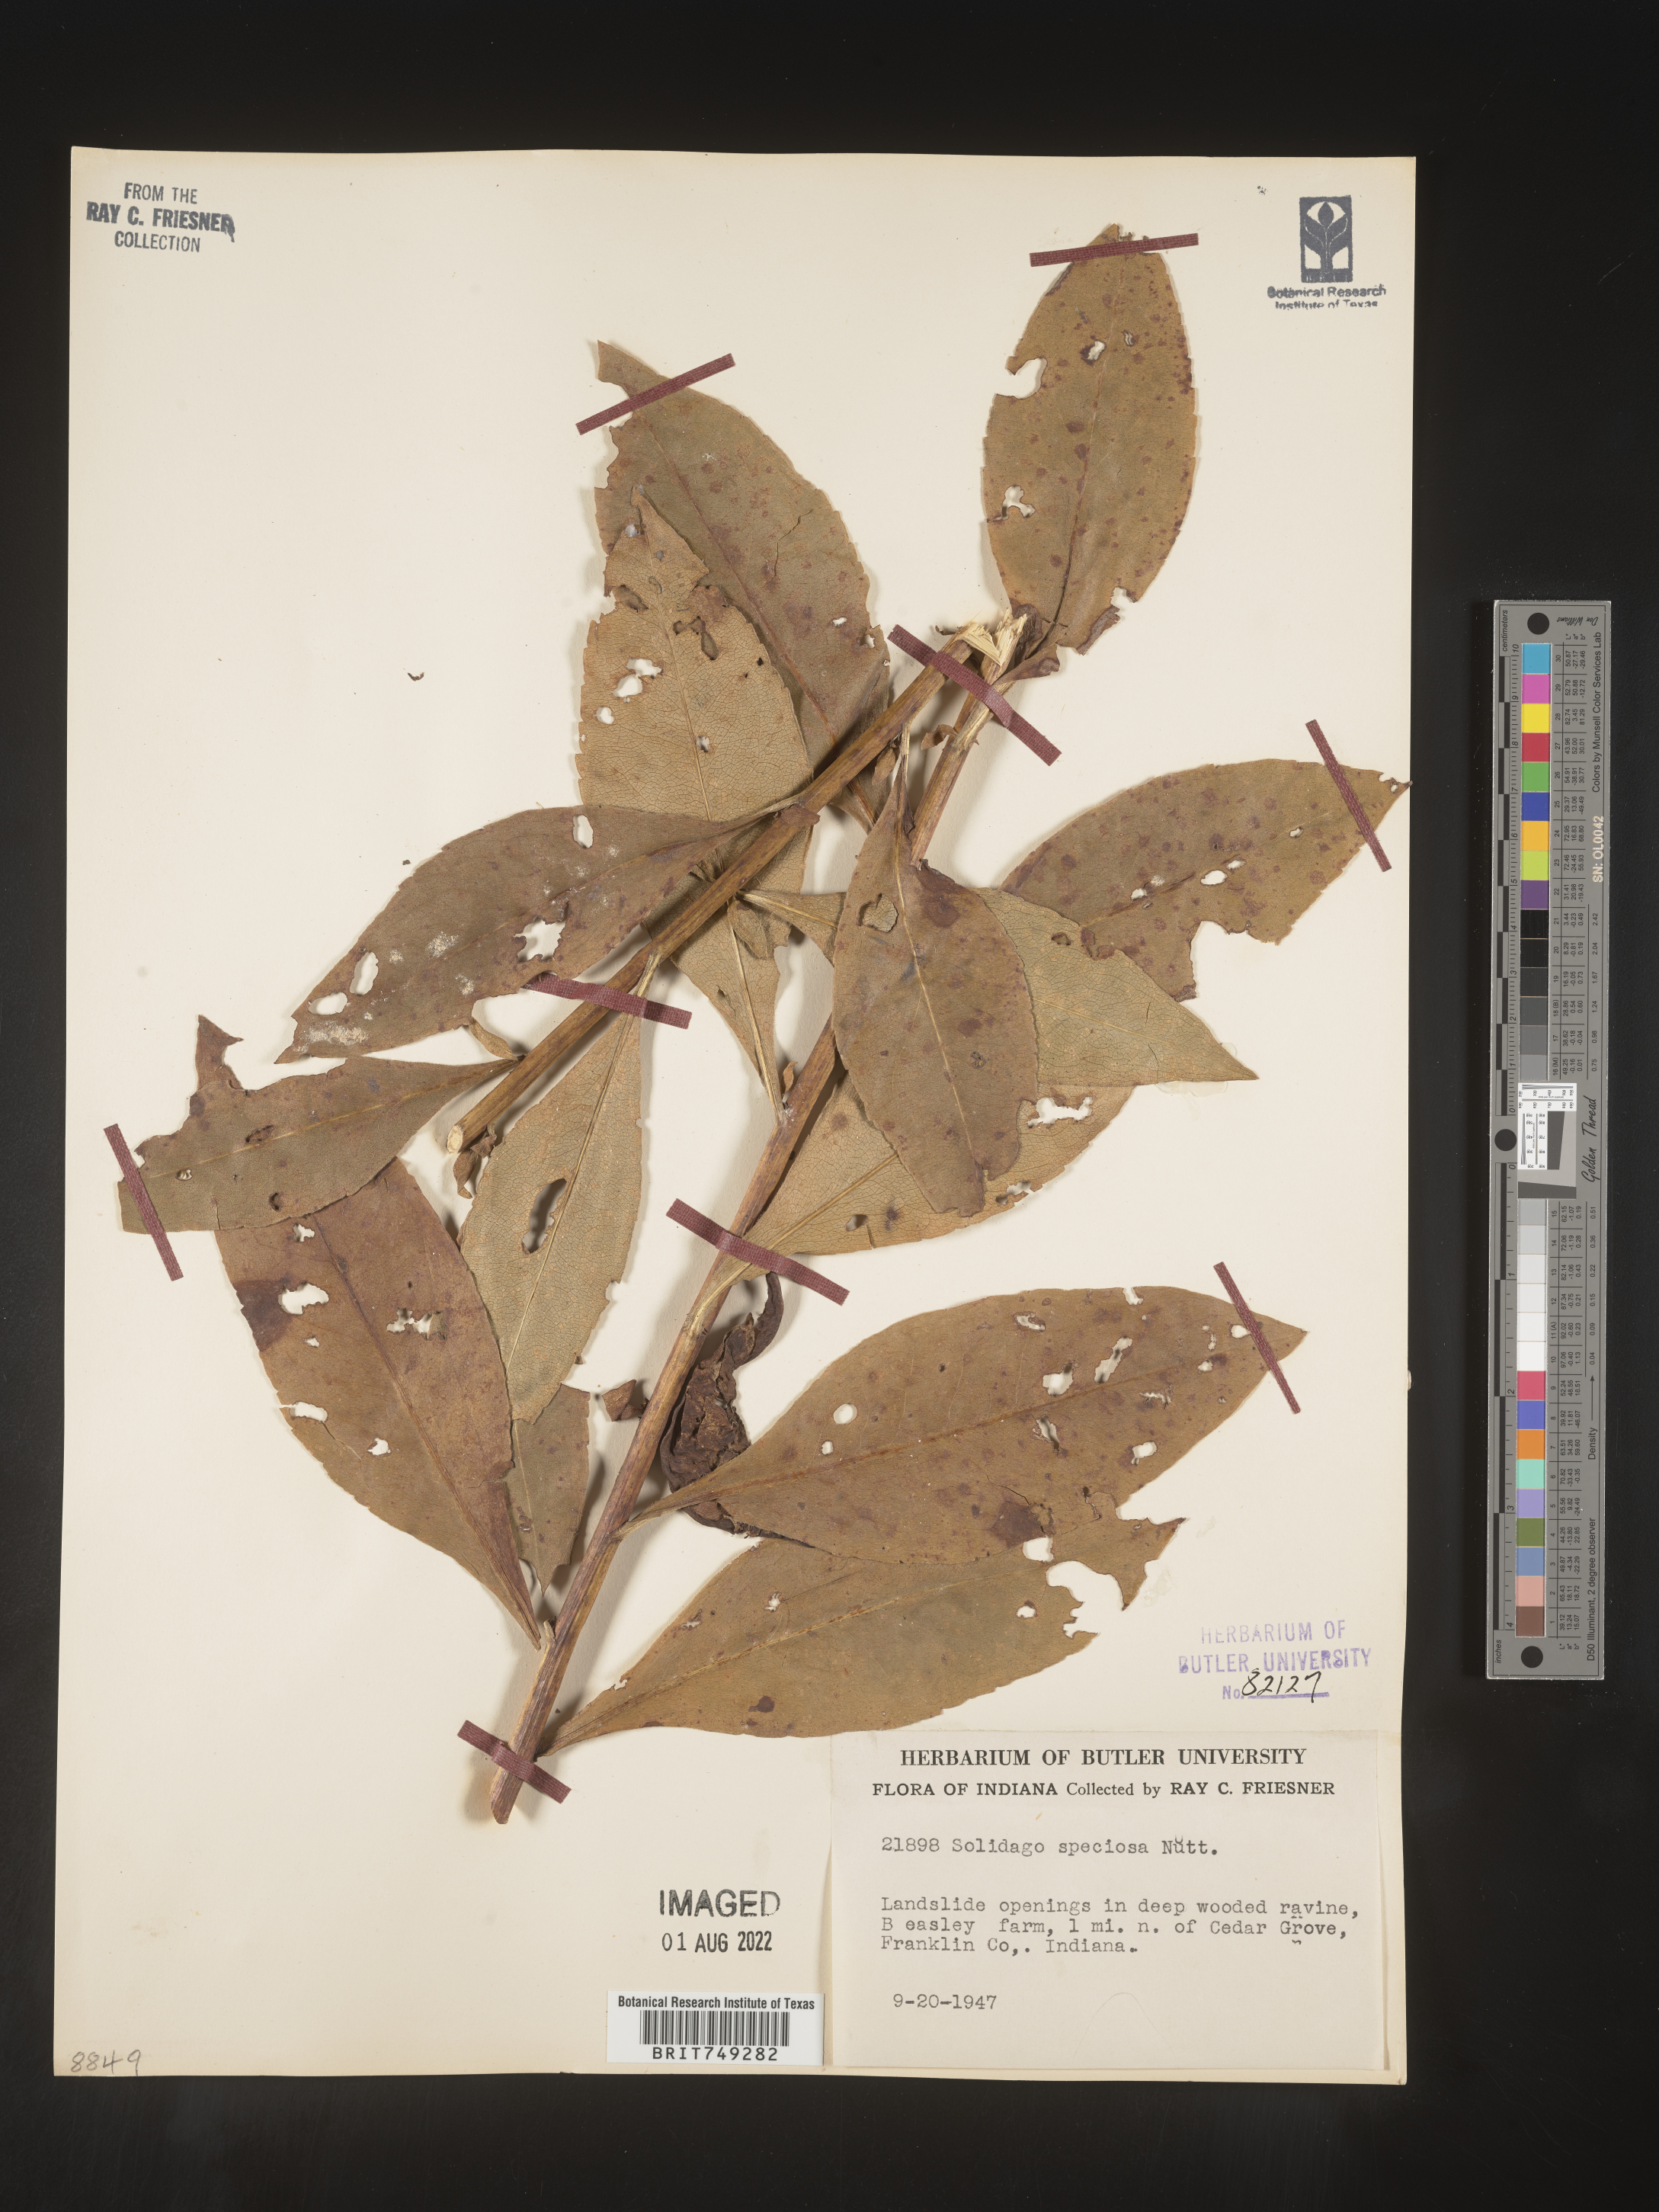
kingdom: Plantae
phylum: Tracheophyta
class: Magnoliopsida
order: Asterales
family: Asteraceae
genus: Solidago
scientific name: Solidago speciosa
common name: Showy goldenrod
